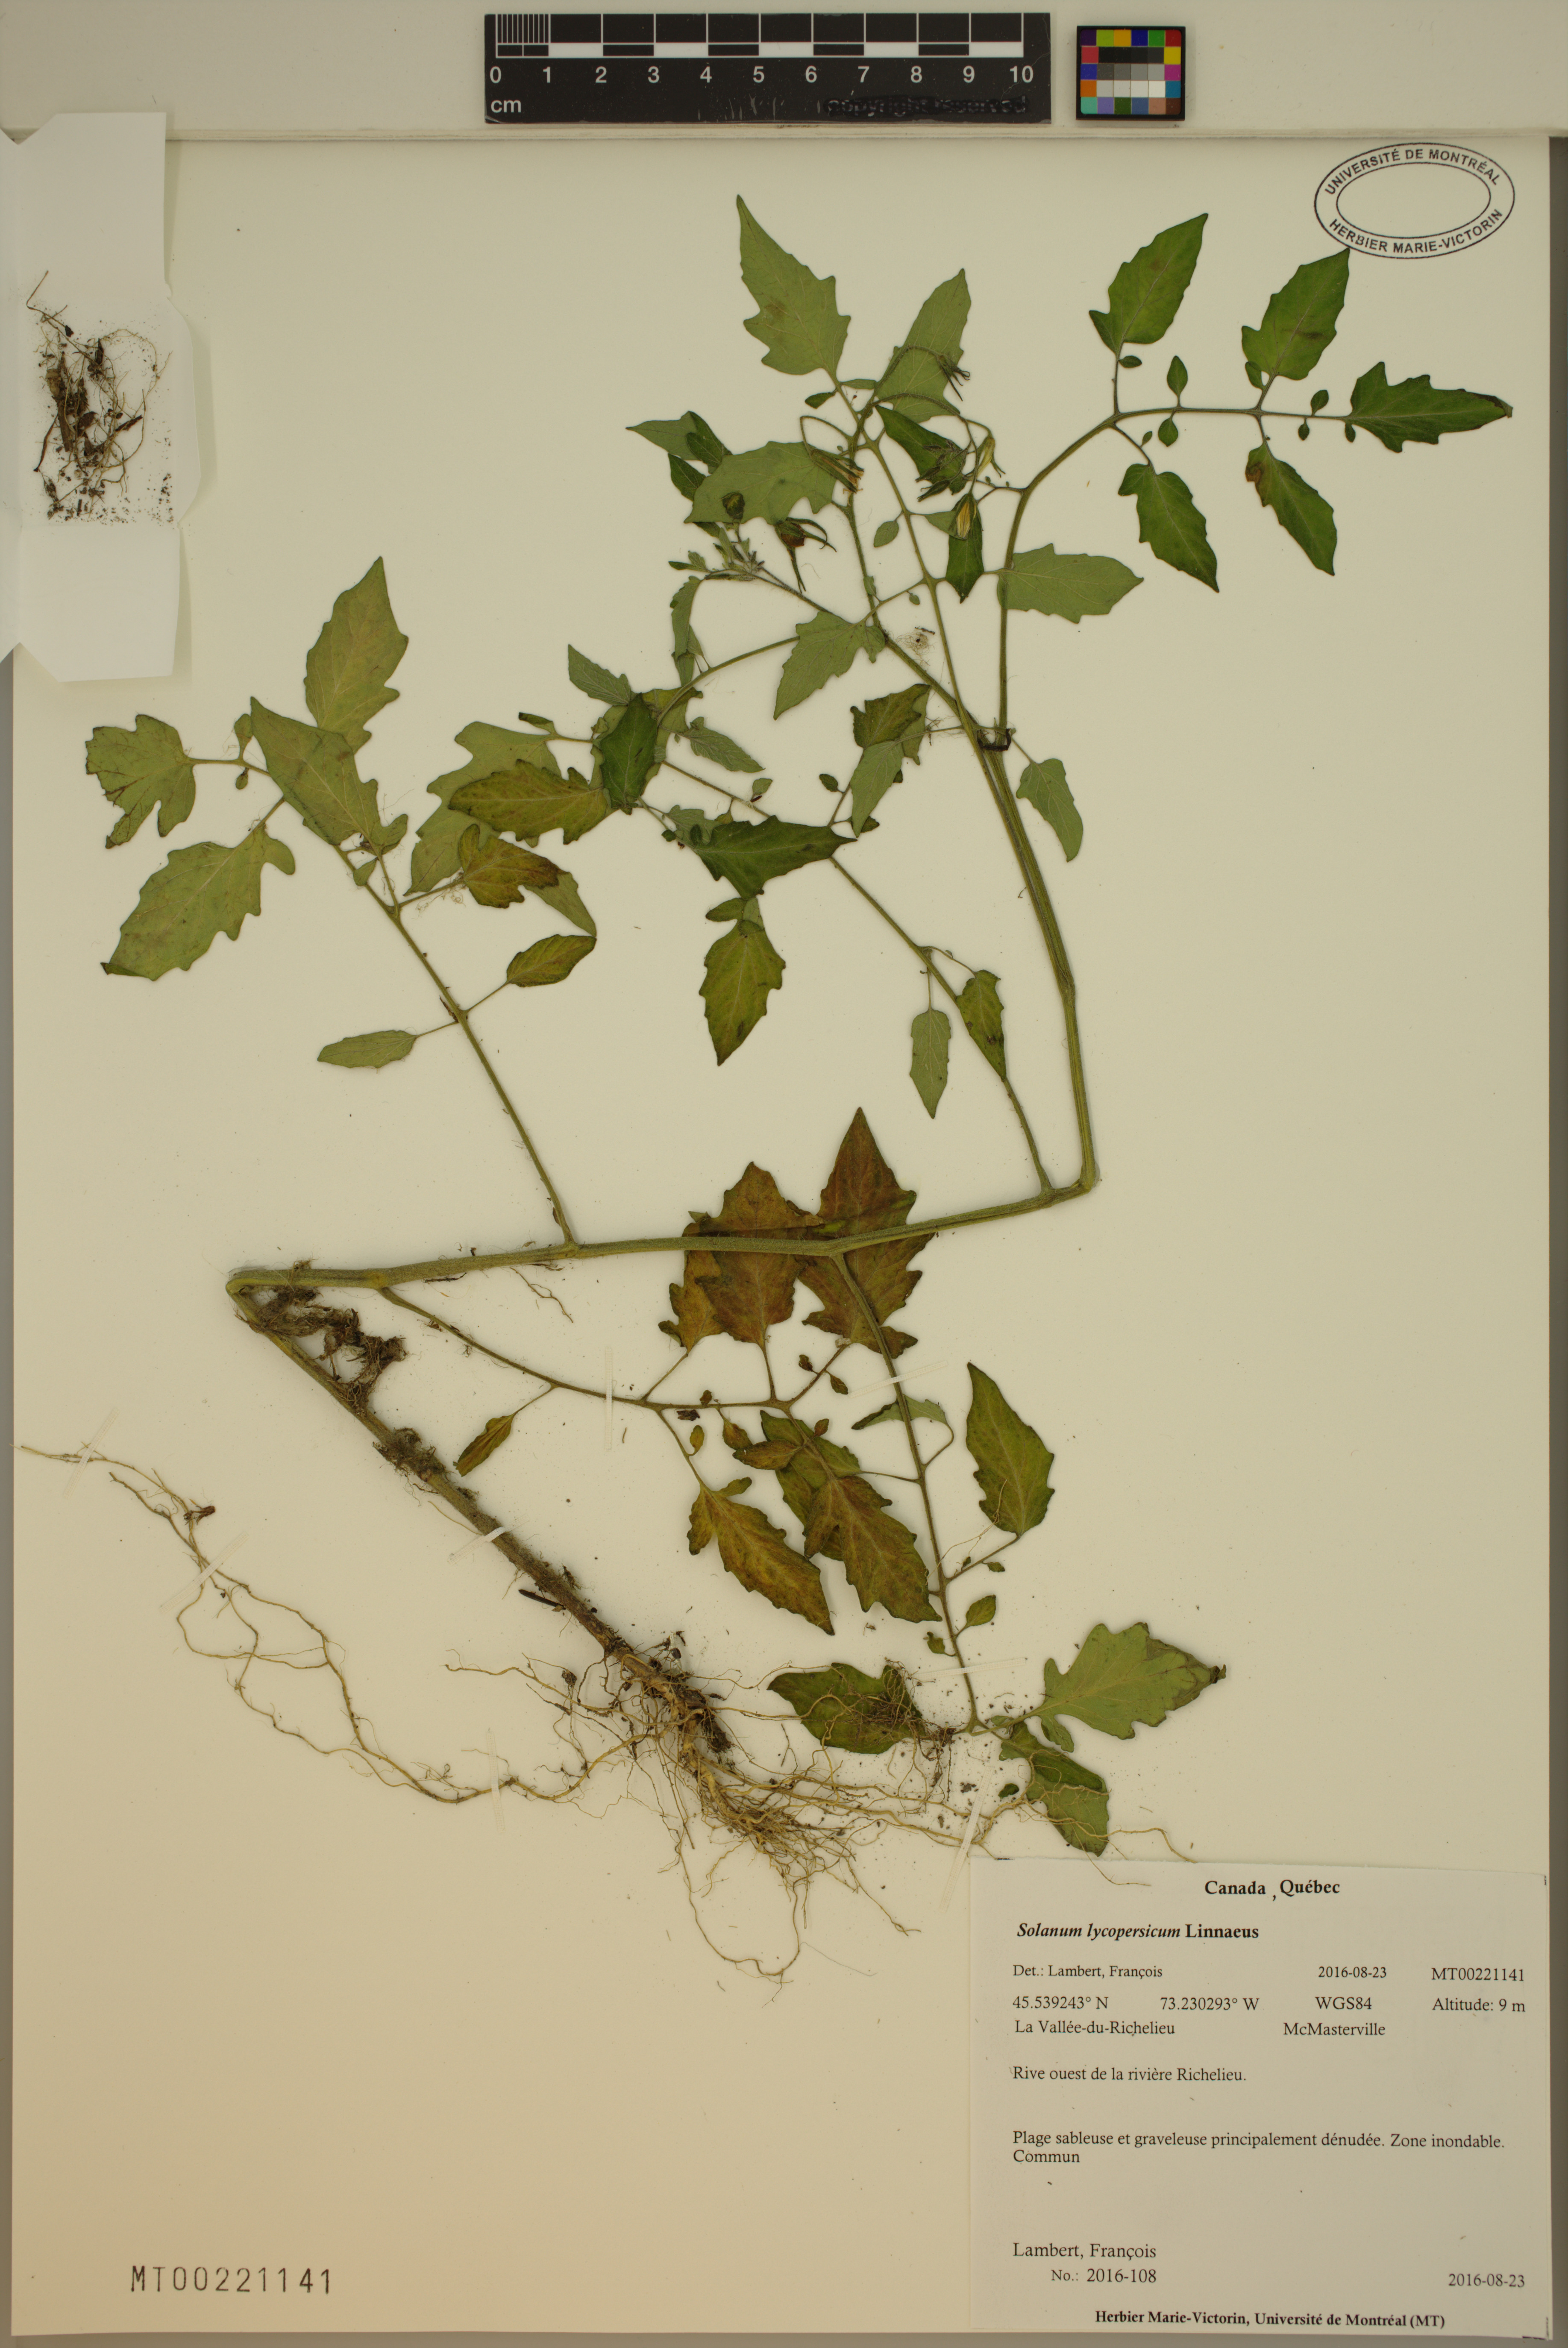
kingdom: Plantae
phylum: Tracheophyta
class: Magnoliopsida
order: Solanales
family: Solanaceae
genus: Solanum
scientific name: Solanum lycopersicum
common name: Garden tomato
